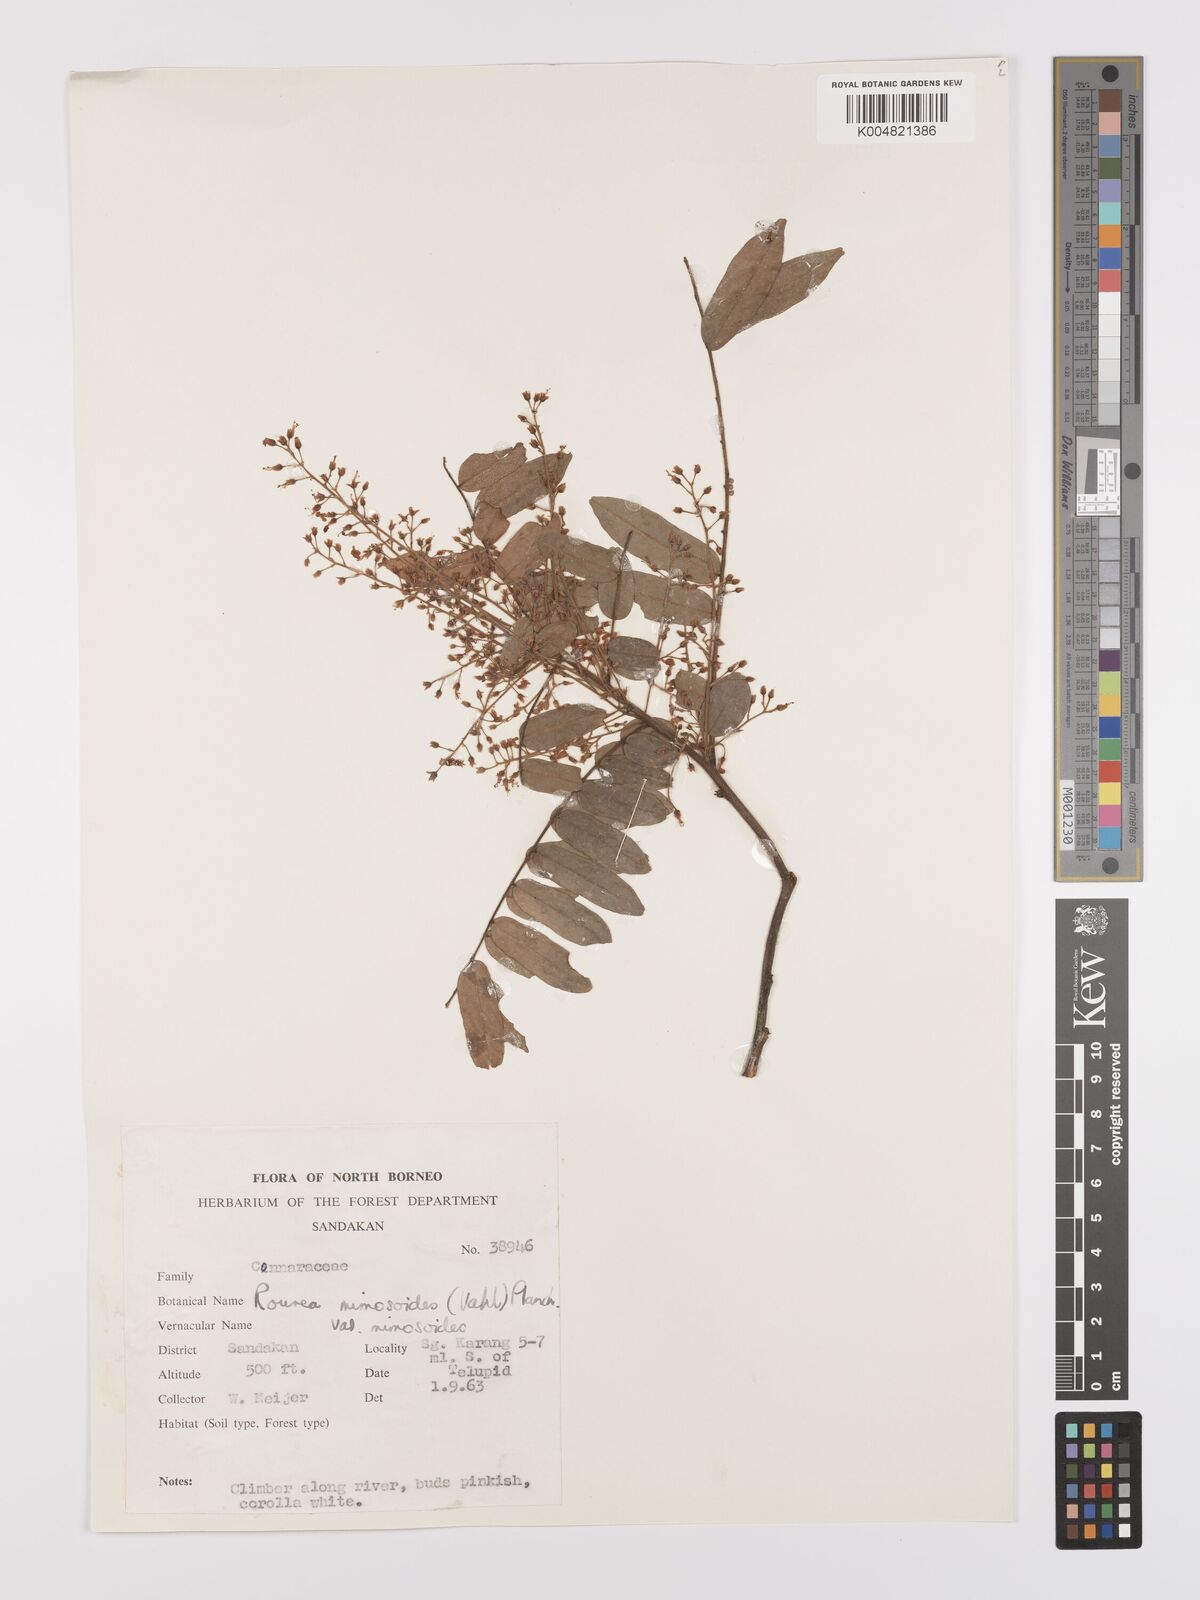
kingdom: Plantae
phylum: Tracheophyta
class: Magnoliopsida
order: Oxalidales
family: Connaraceae
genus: Rourea
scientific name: Rourea mimosoides
